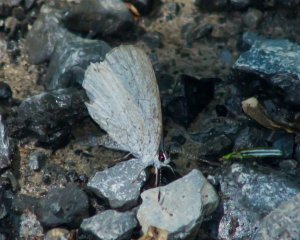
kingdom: Animalia
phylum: Arthropoda
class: Insecta
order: Lepidoptera
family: Lycaenidae
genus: Celastrina
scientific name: Celastrina
